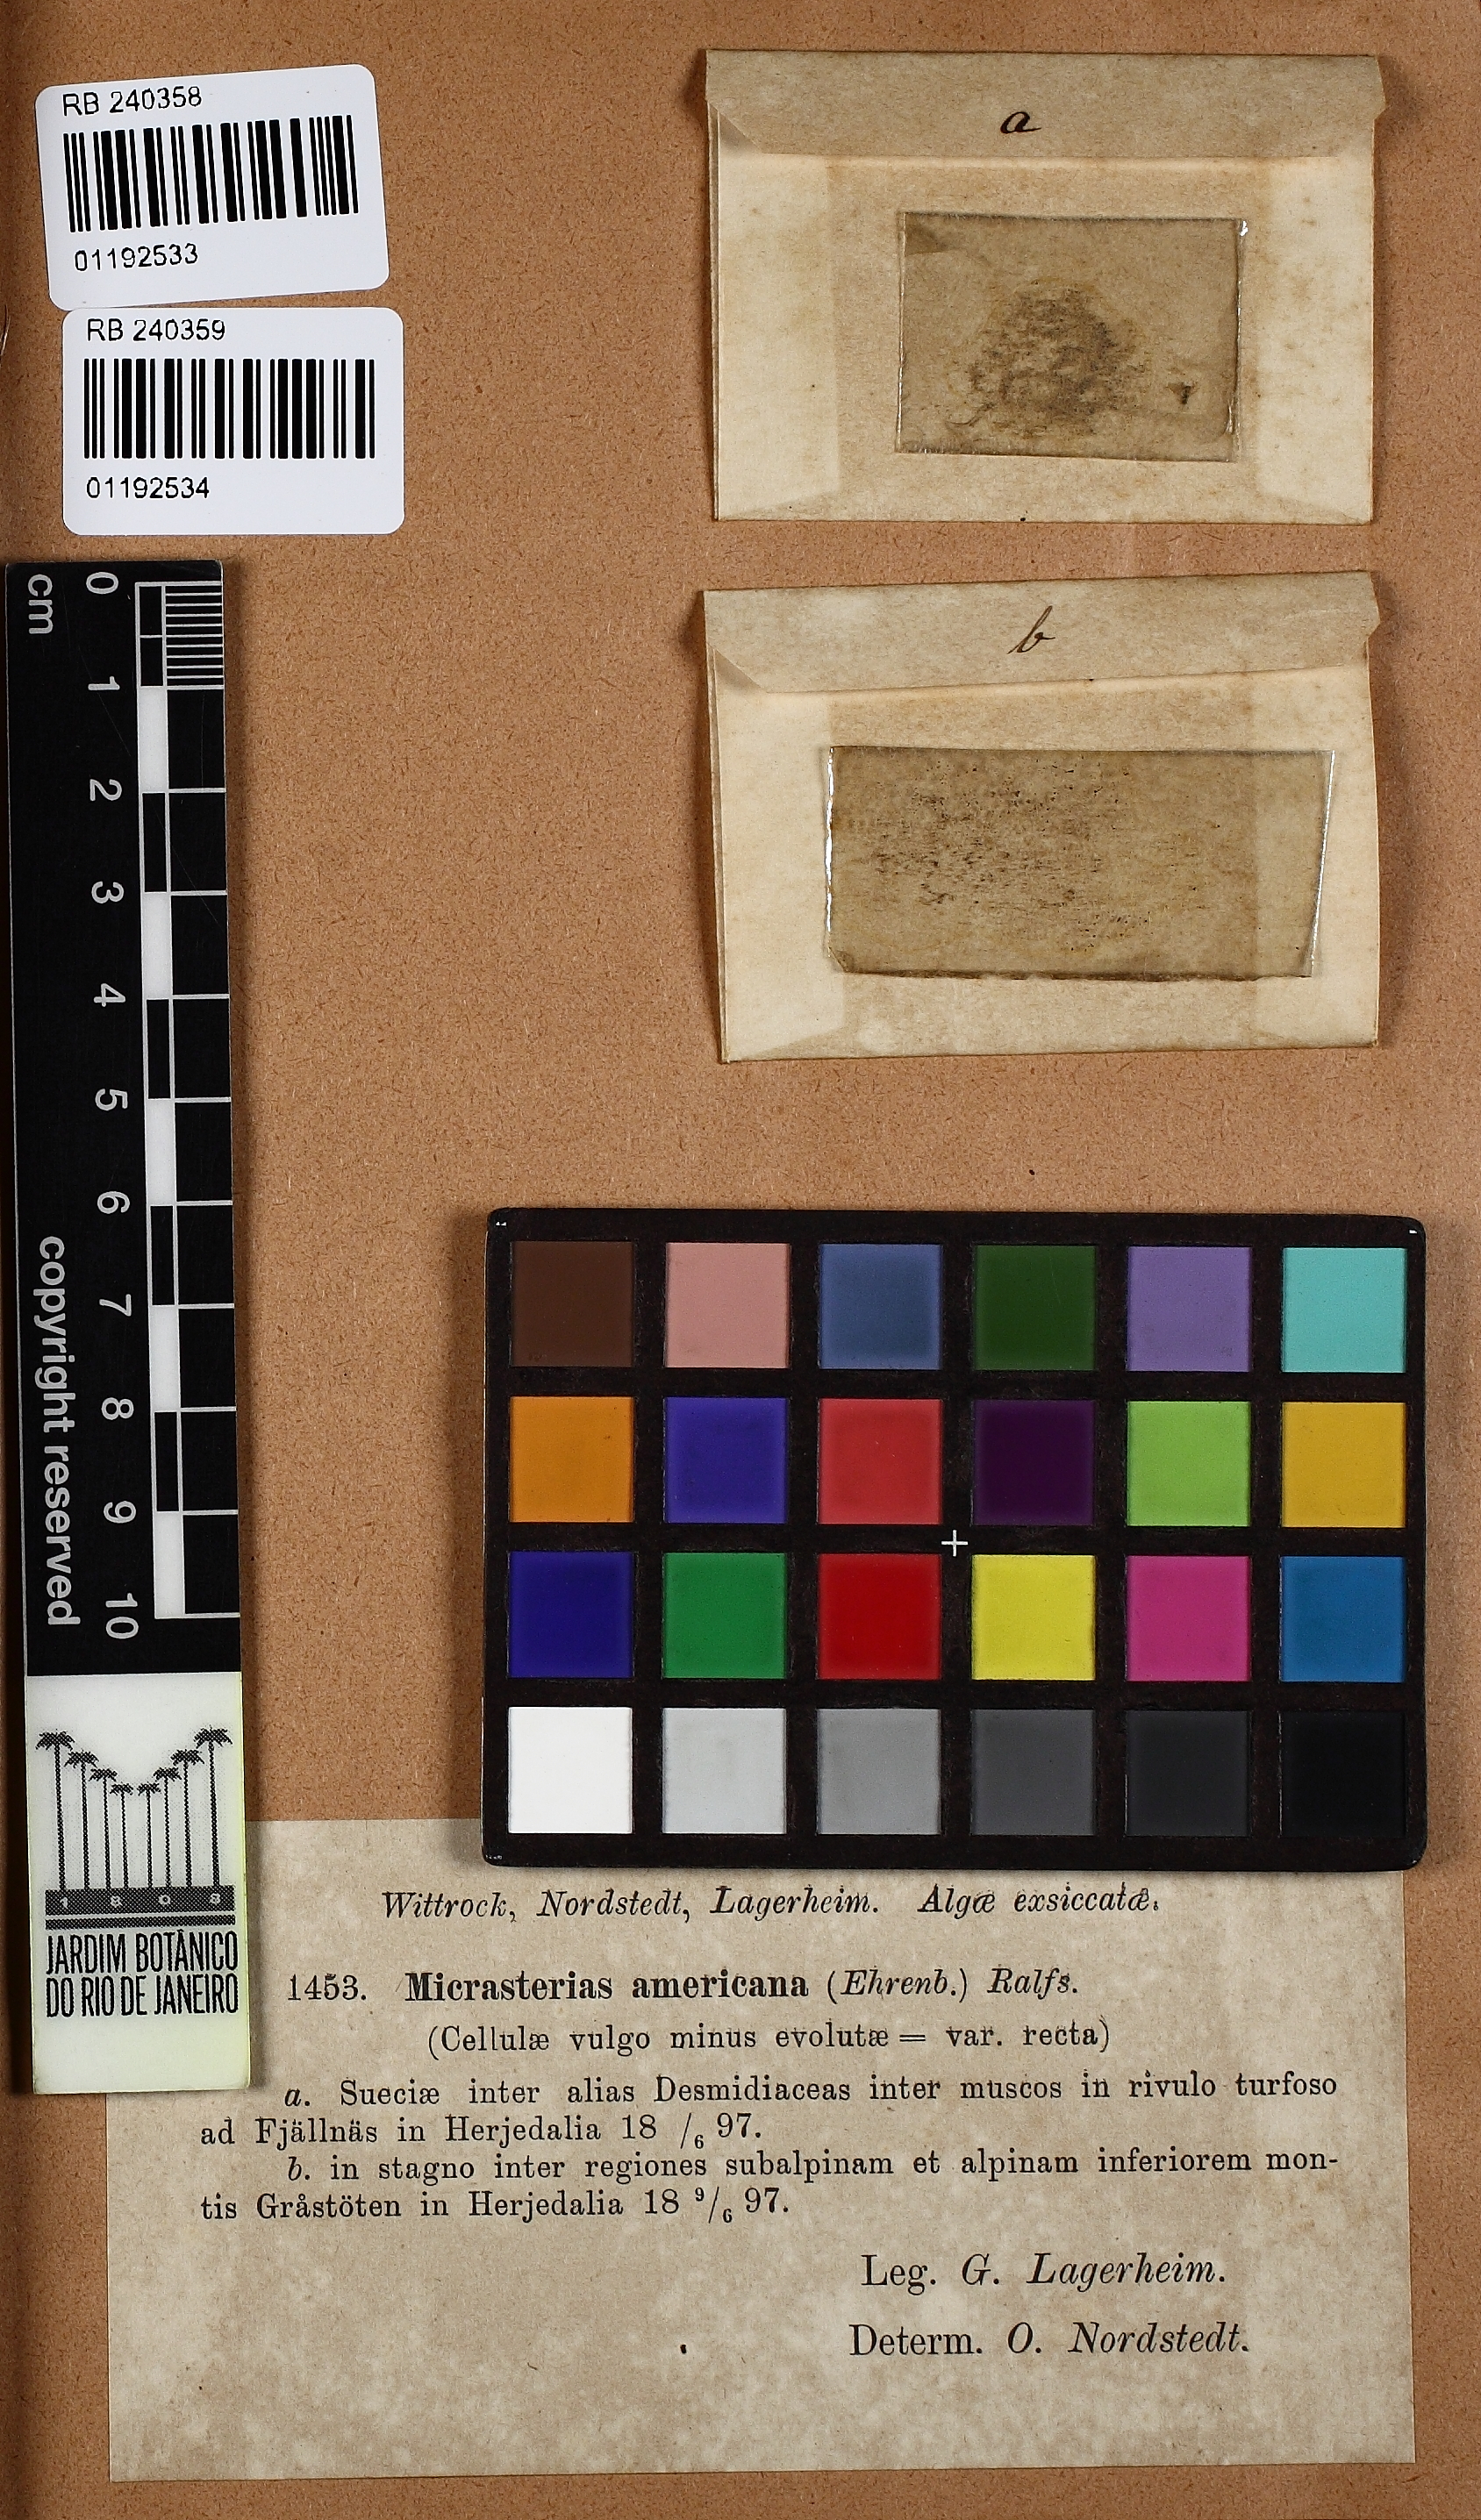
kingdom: Plantae
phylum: Charophyta
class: Conjugatophyceae
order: Desmidiales
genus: Micrasterias
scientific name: Micrasterias americana
